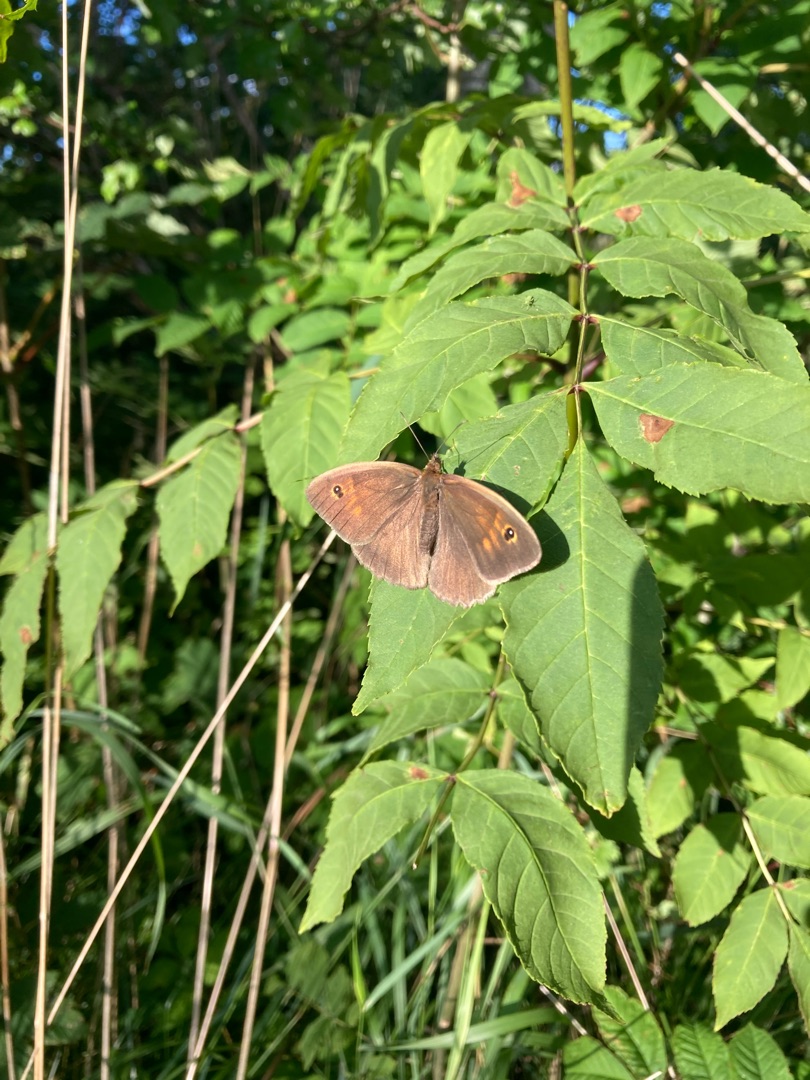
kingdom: Animalia
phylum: Arthropoda
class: Insecta
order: Lepidoptera
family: Nymphalidae
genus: Maniola
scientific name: Maniola jurtina
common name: Græsrandøje
